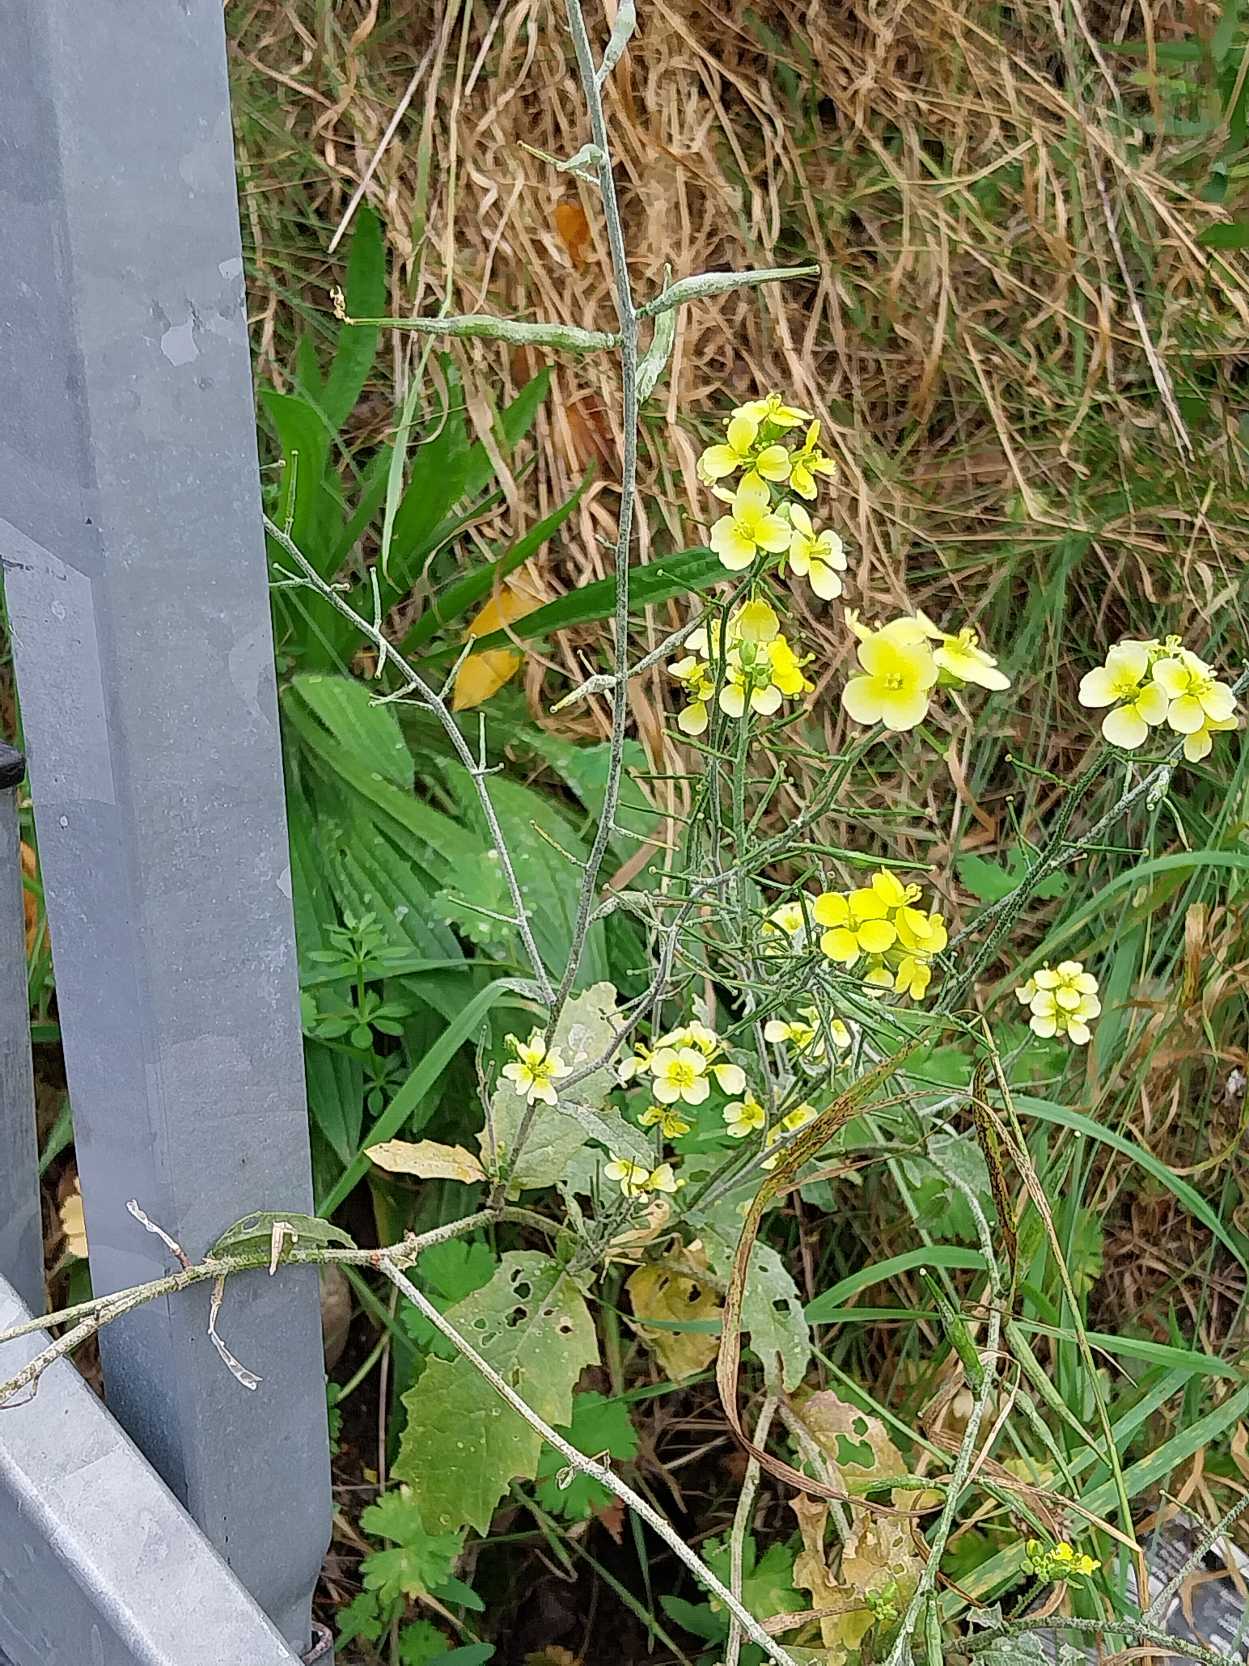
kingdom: Plantae
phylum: Tracheophyta
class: Magnoliopsida
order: Brassicales
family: Brassicaceae
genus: Sinapis
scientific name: Sinapis arvensis
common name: Ager-sennep
